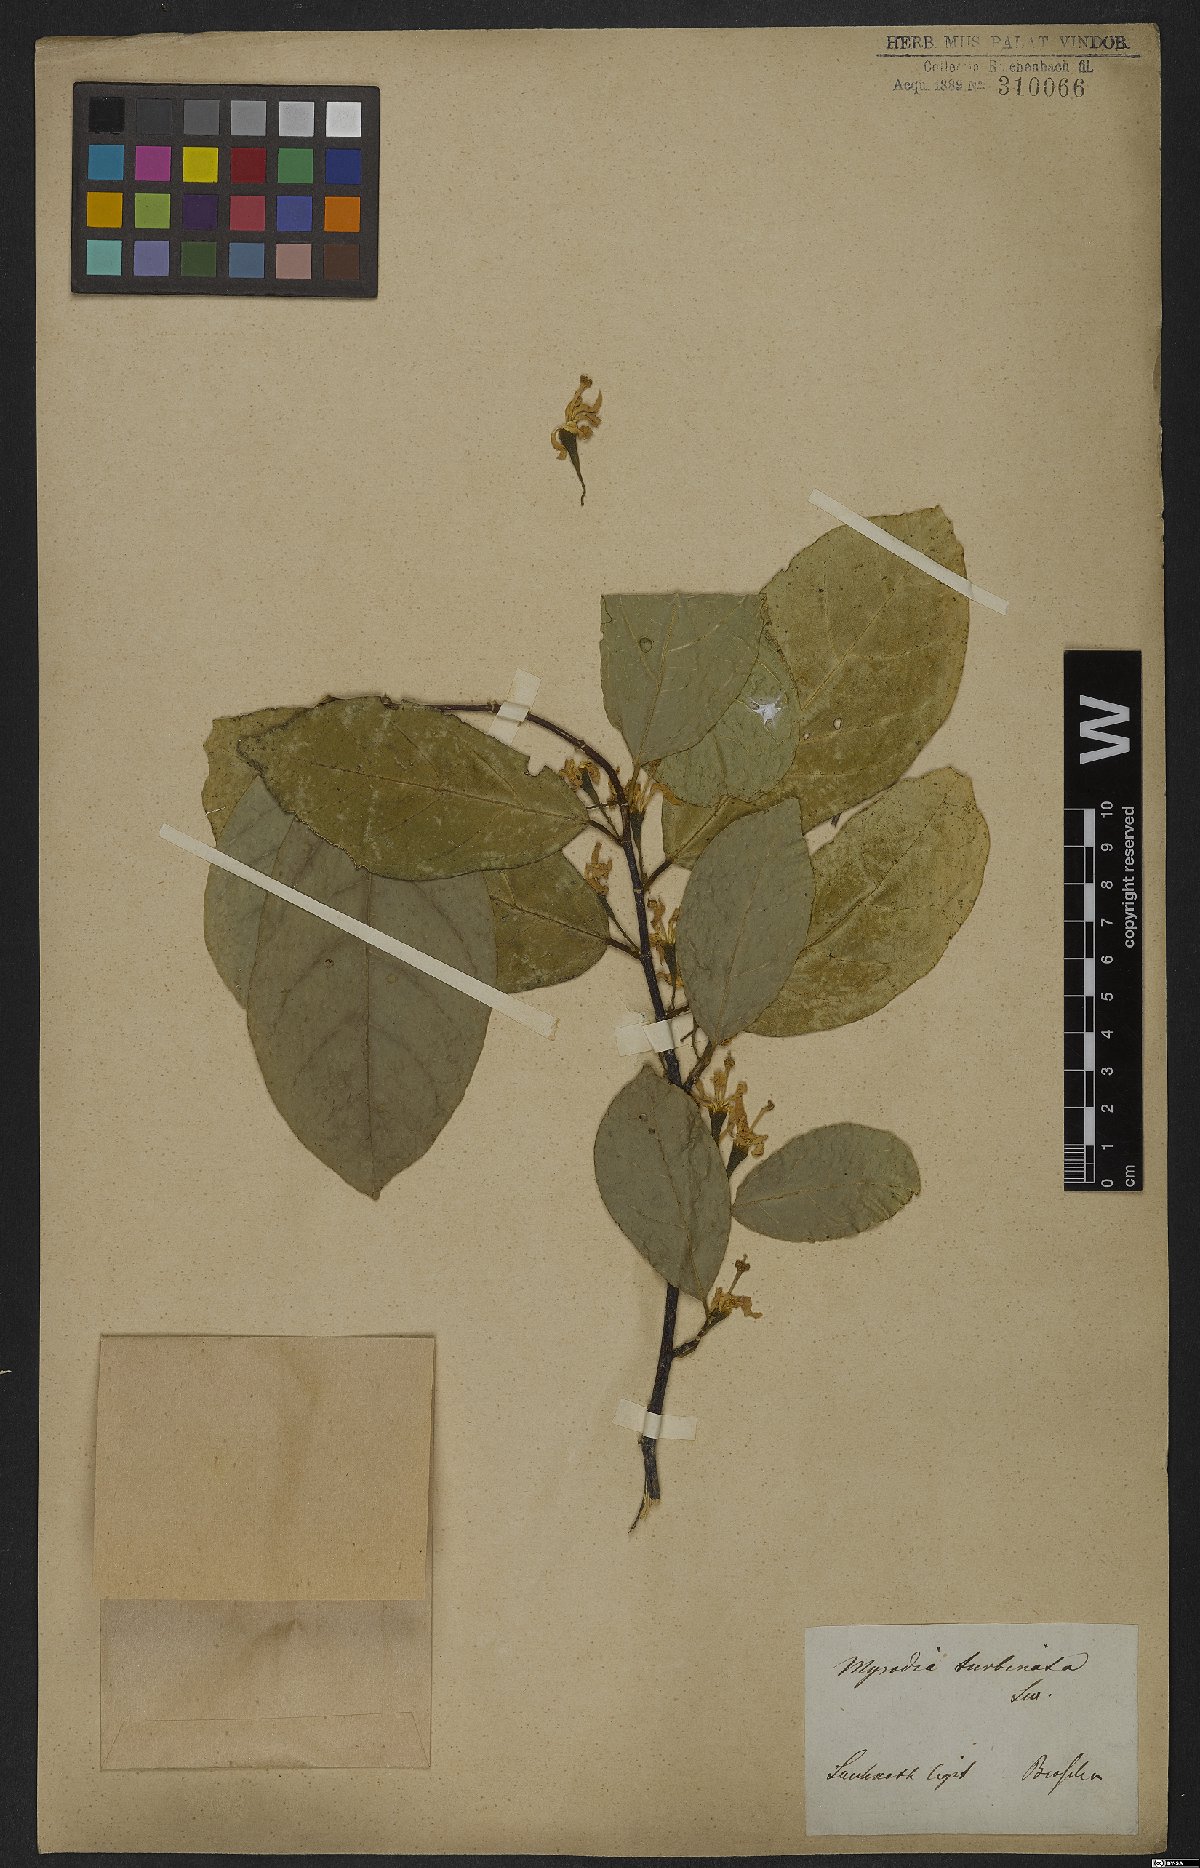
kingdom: Plantae
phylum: Tracheophyta
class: Magnoliopsida
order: Malvales
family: Malvaceae
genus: Quararibea
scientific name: Quararibea turbinata
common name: Swizzlestick-tree
